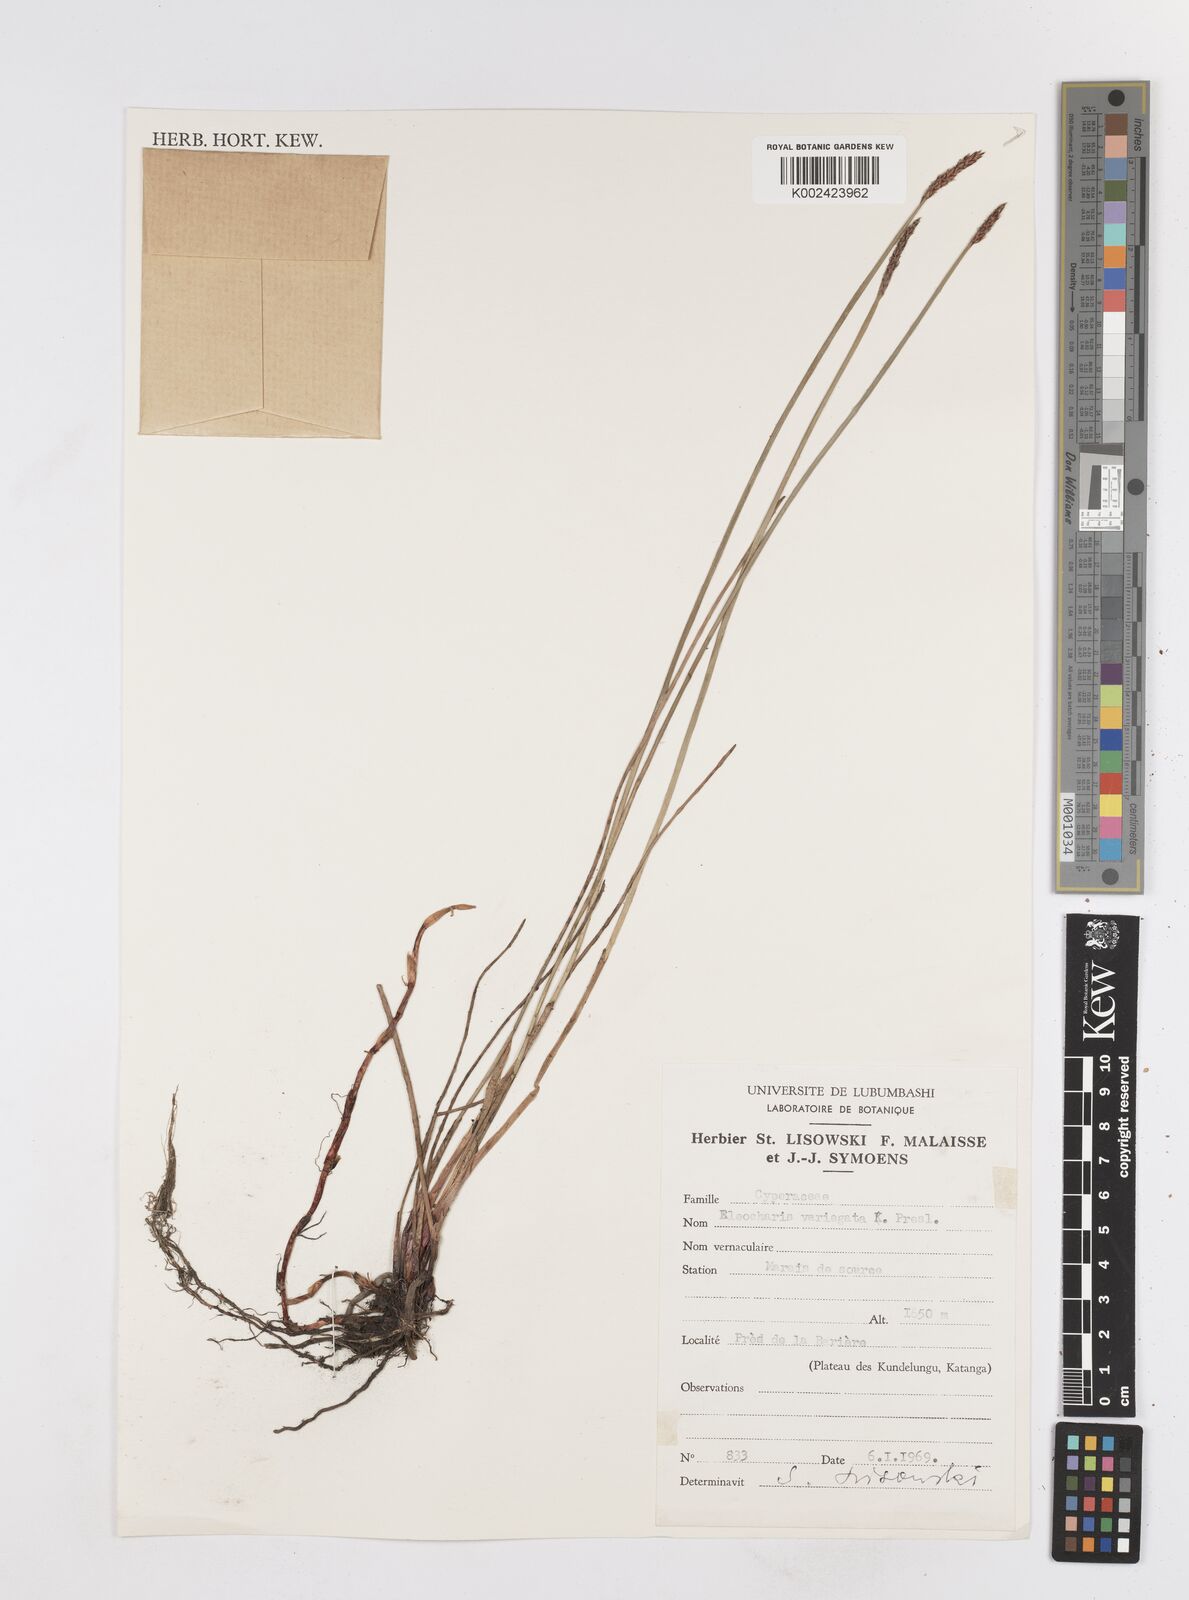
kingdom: Plantae
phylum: Tracheophyta
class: Liliopsida
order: Poales
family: Cyperaceae
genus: Eleocharis
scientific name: Eleocharis variegata
